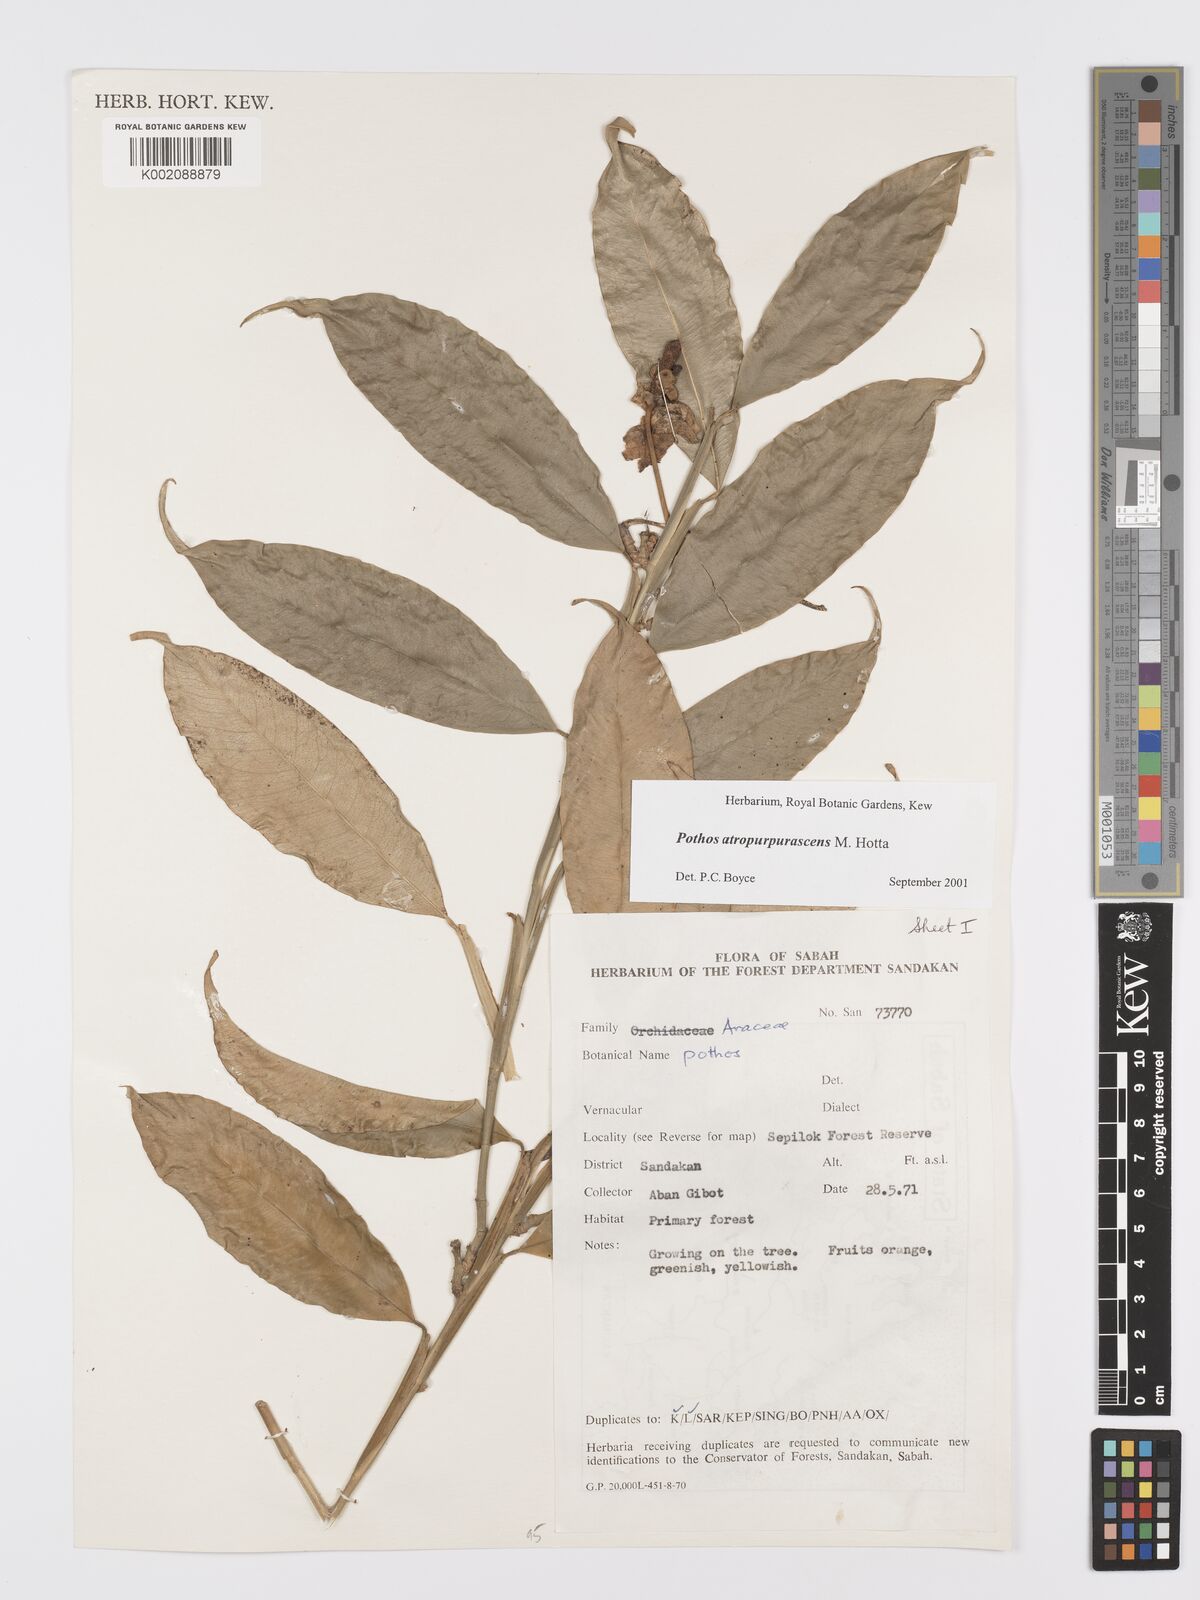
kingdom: Plantae
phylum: Tracheophyta
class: Liliopsida
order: Alismatales
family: Araceae
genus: Pothos
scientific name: Pothos atropurpurascens
